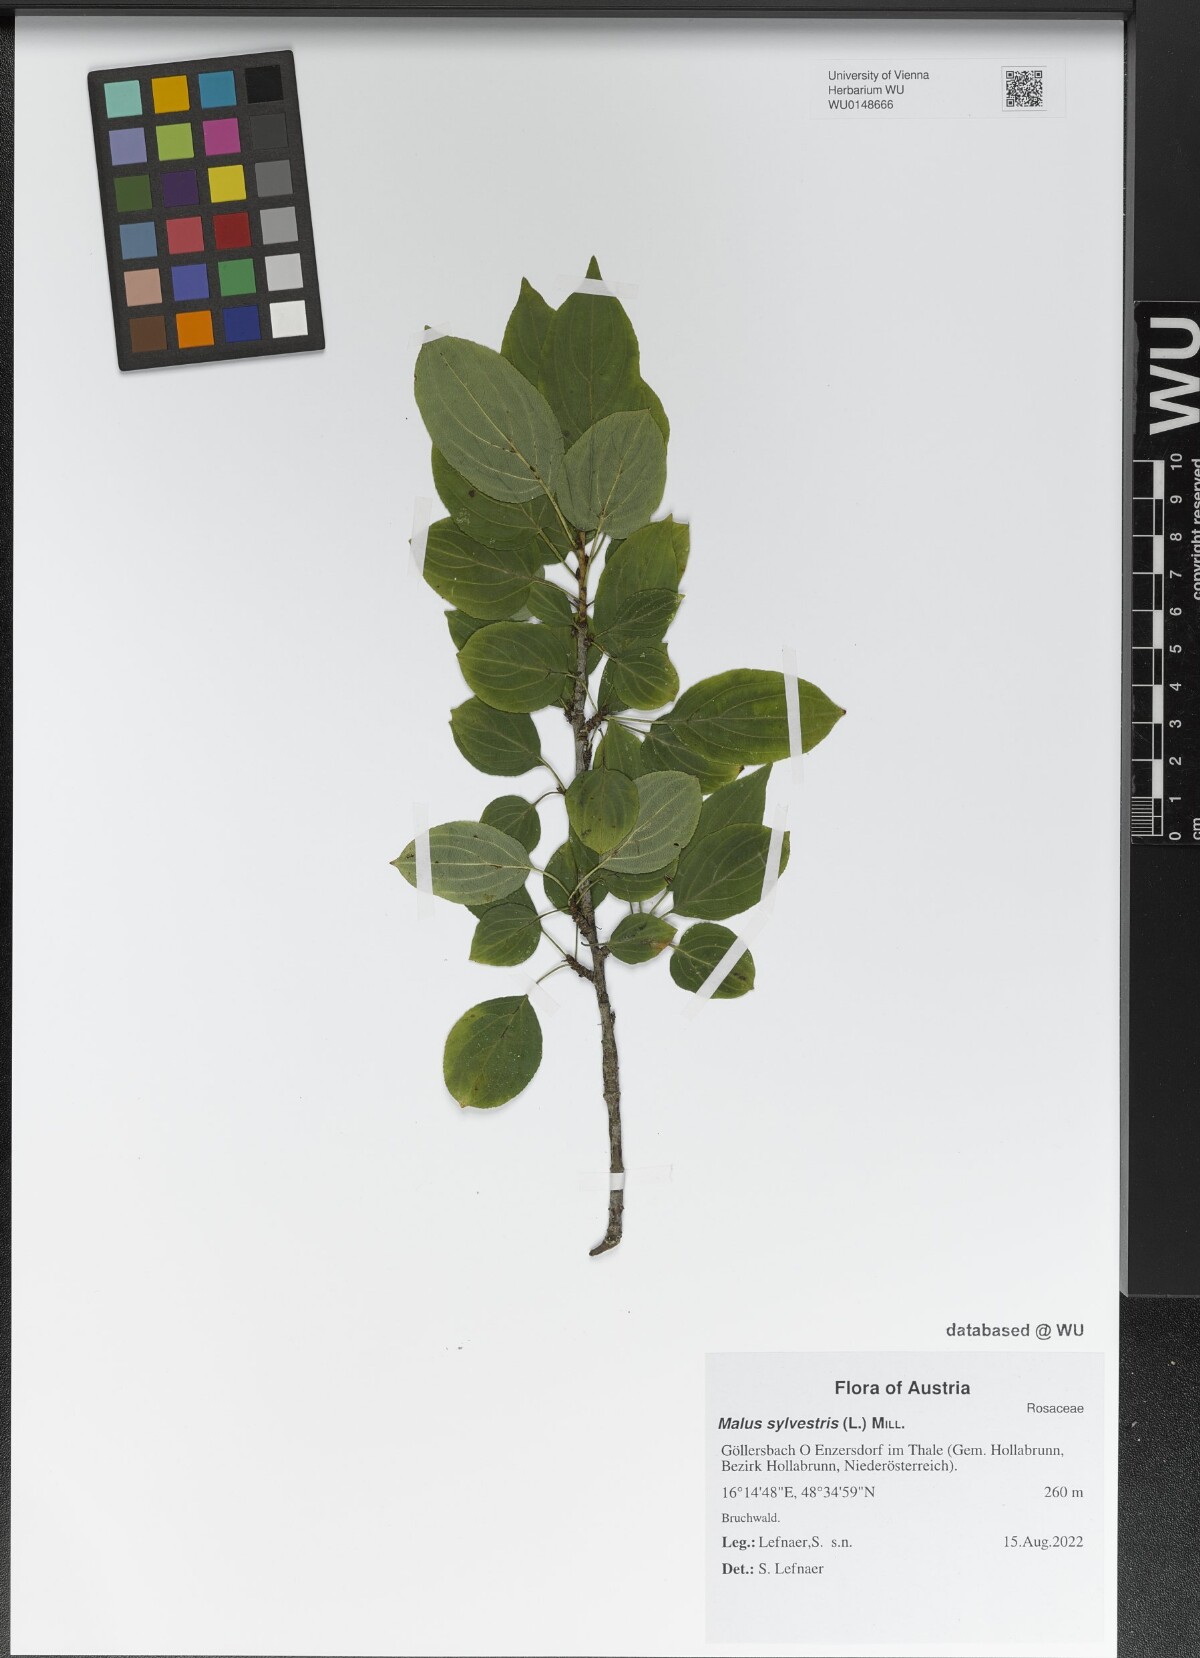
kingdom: Plantae
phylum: Tracheophyta
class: Magnoliopsida
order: Rosales
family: Rosaceae
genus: Malus
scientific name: Malus sylvestris
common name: Crab apple
